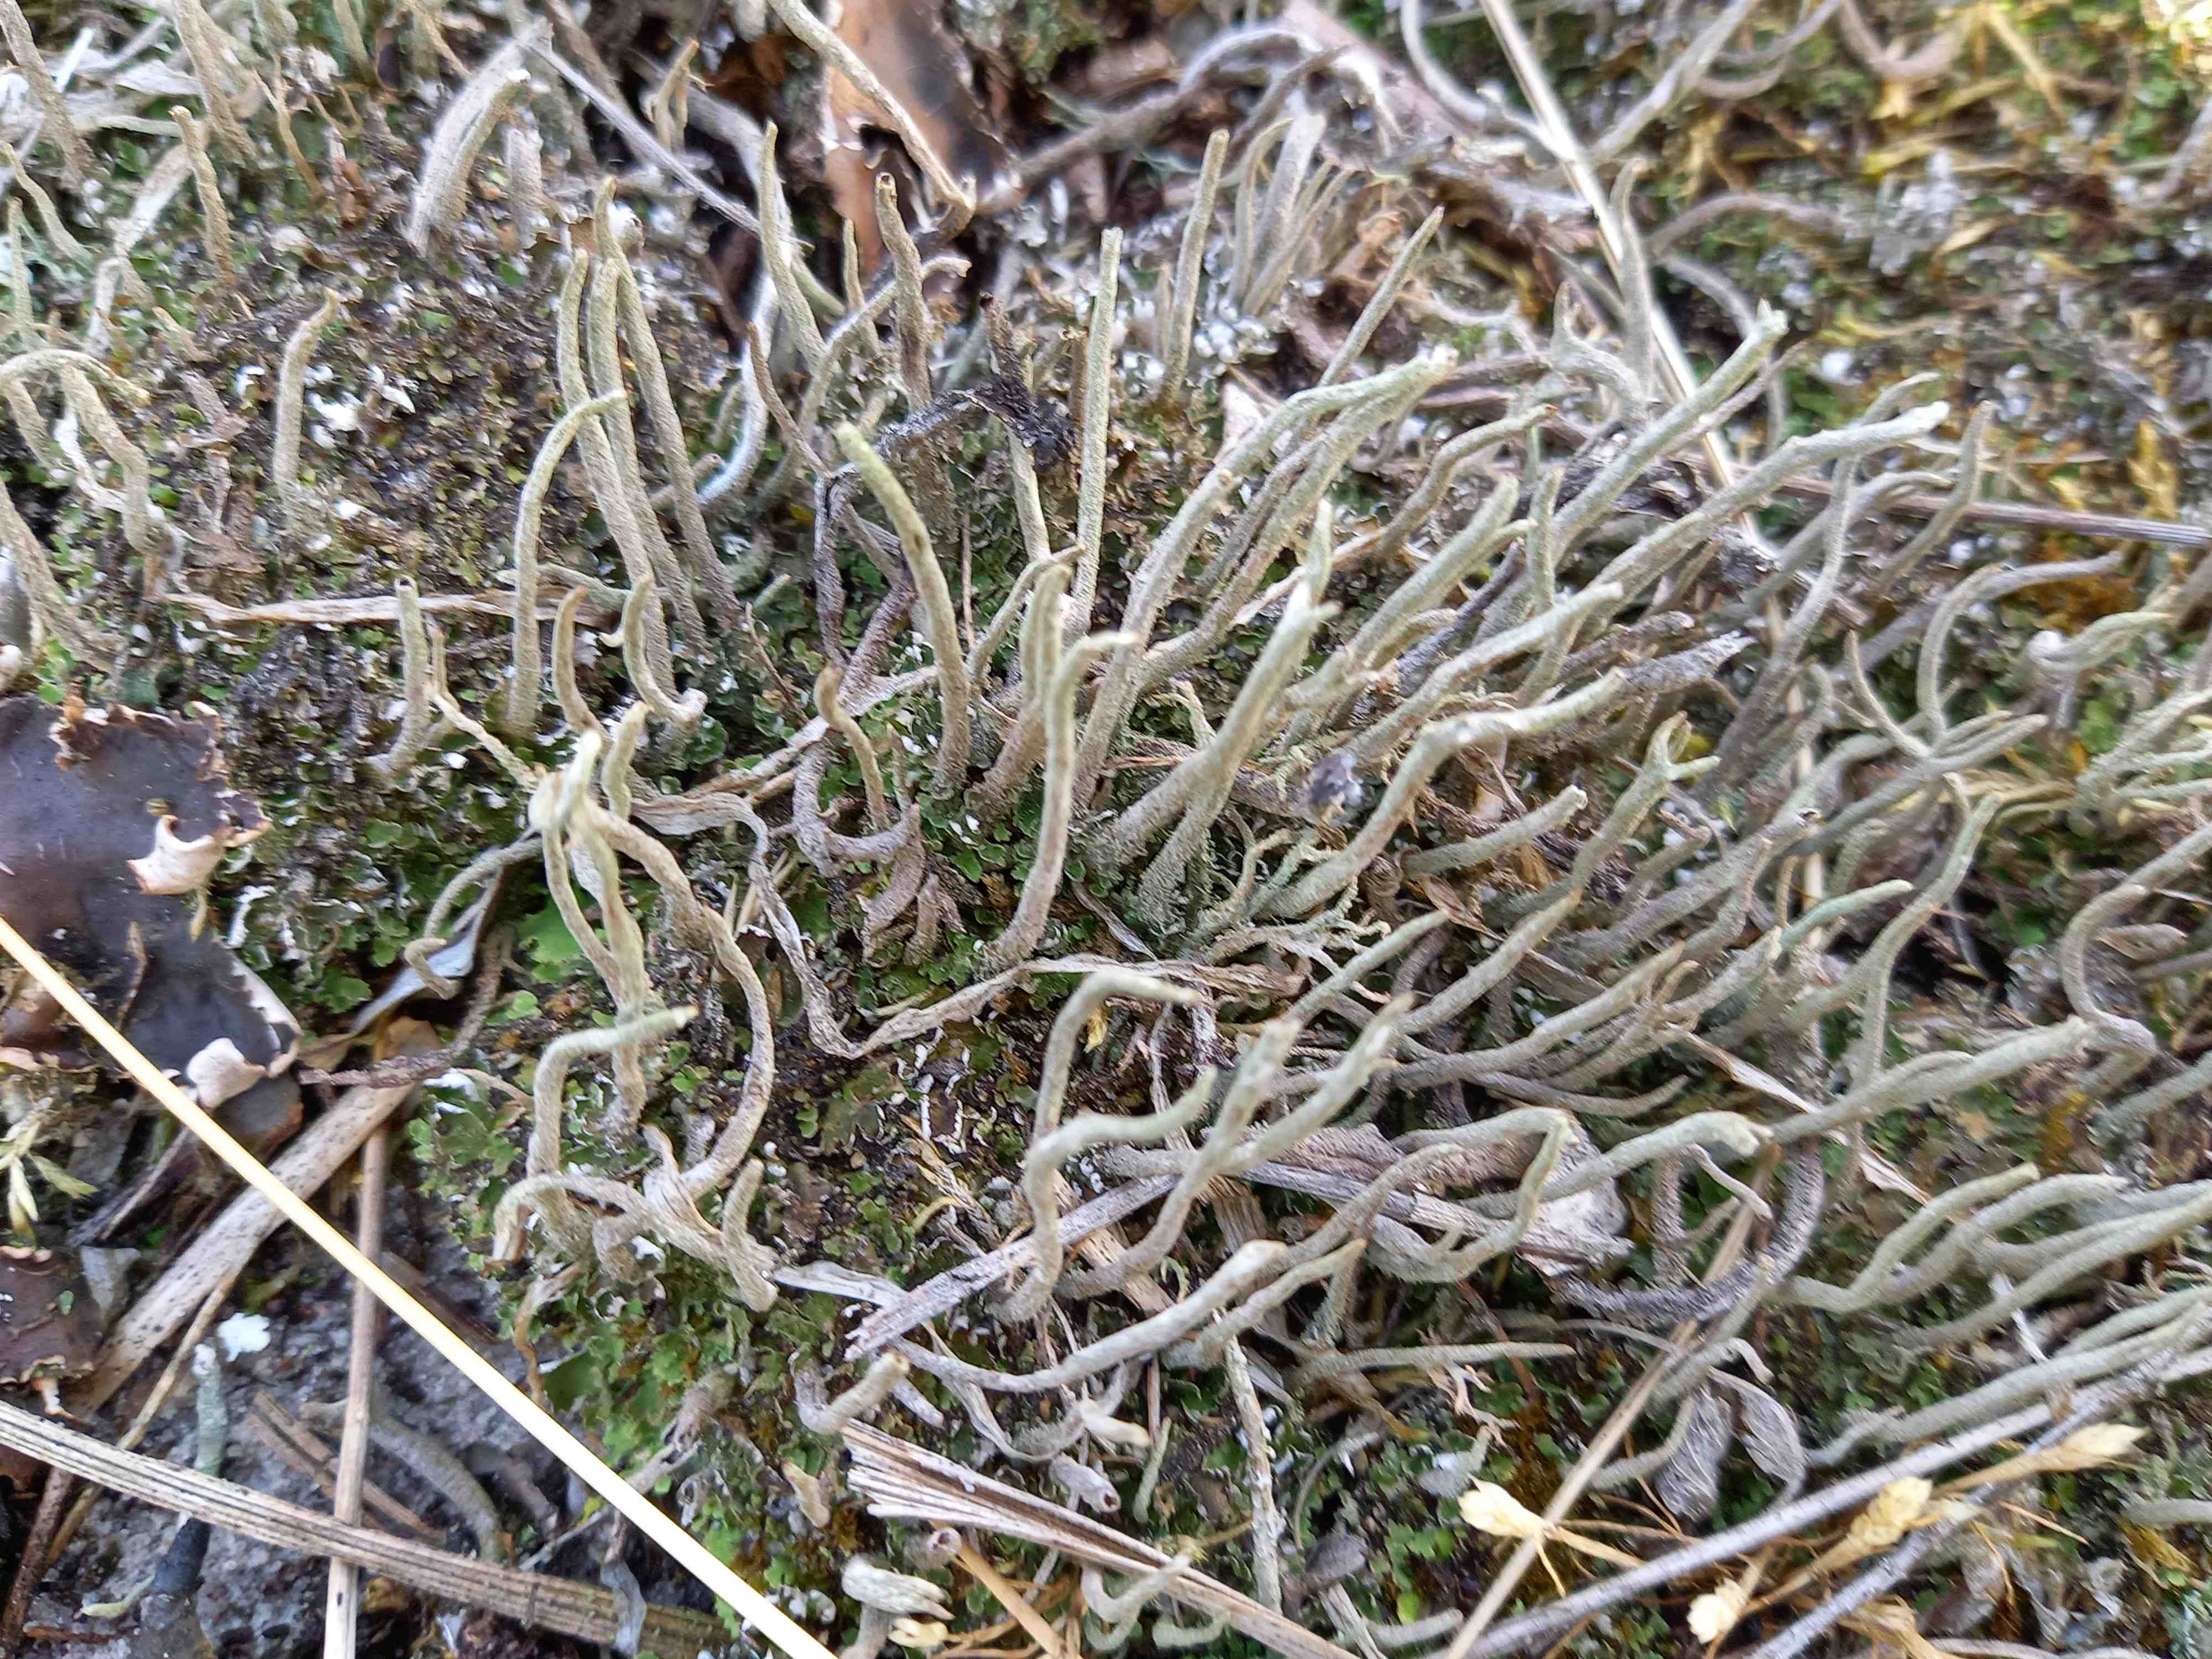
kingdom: Fungi
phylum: Ascomycota
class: Lecanoromycetes
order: Lecanorales
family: Cladoniaceae
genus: Cladonia
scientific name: Cladonia subulata
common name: spids bægerlav
